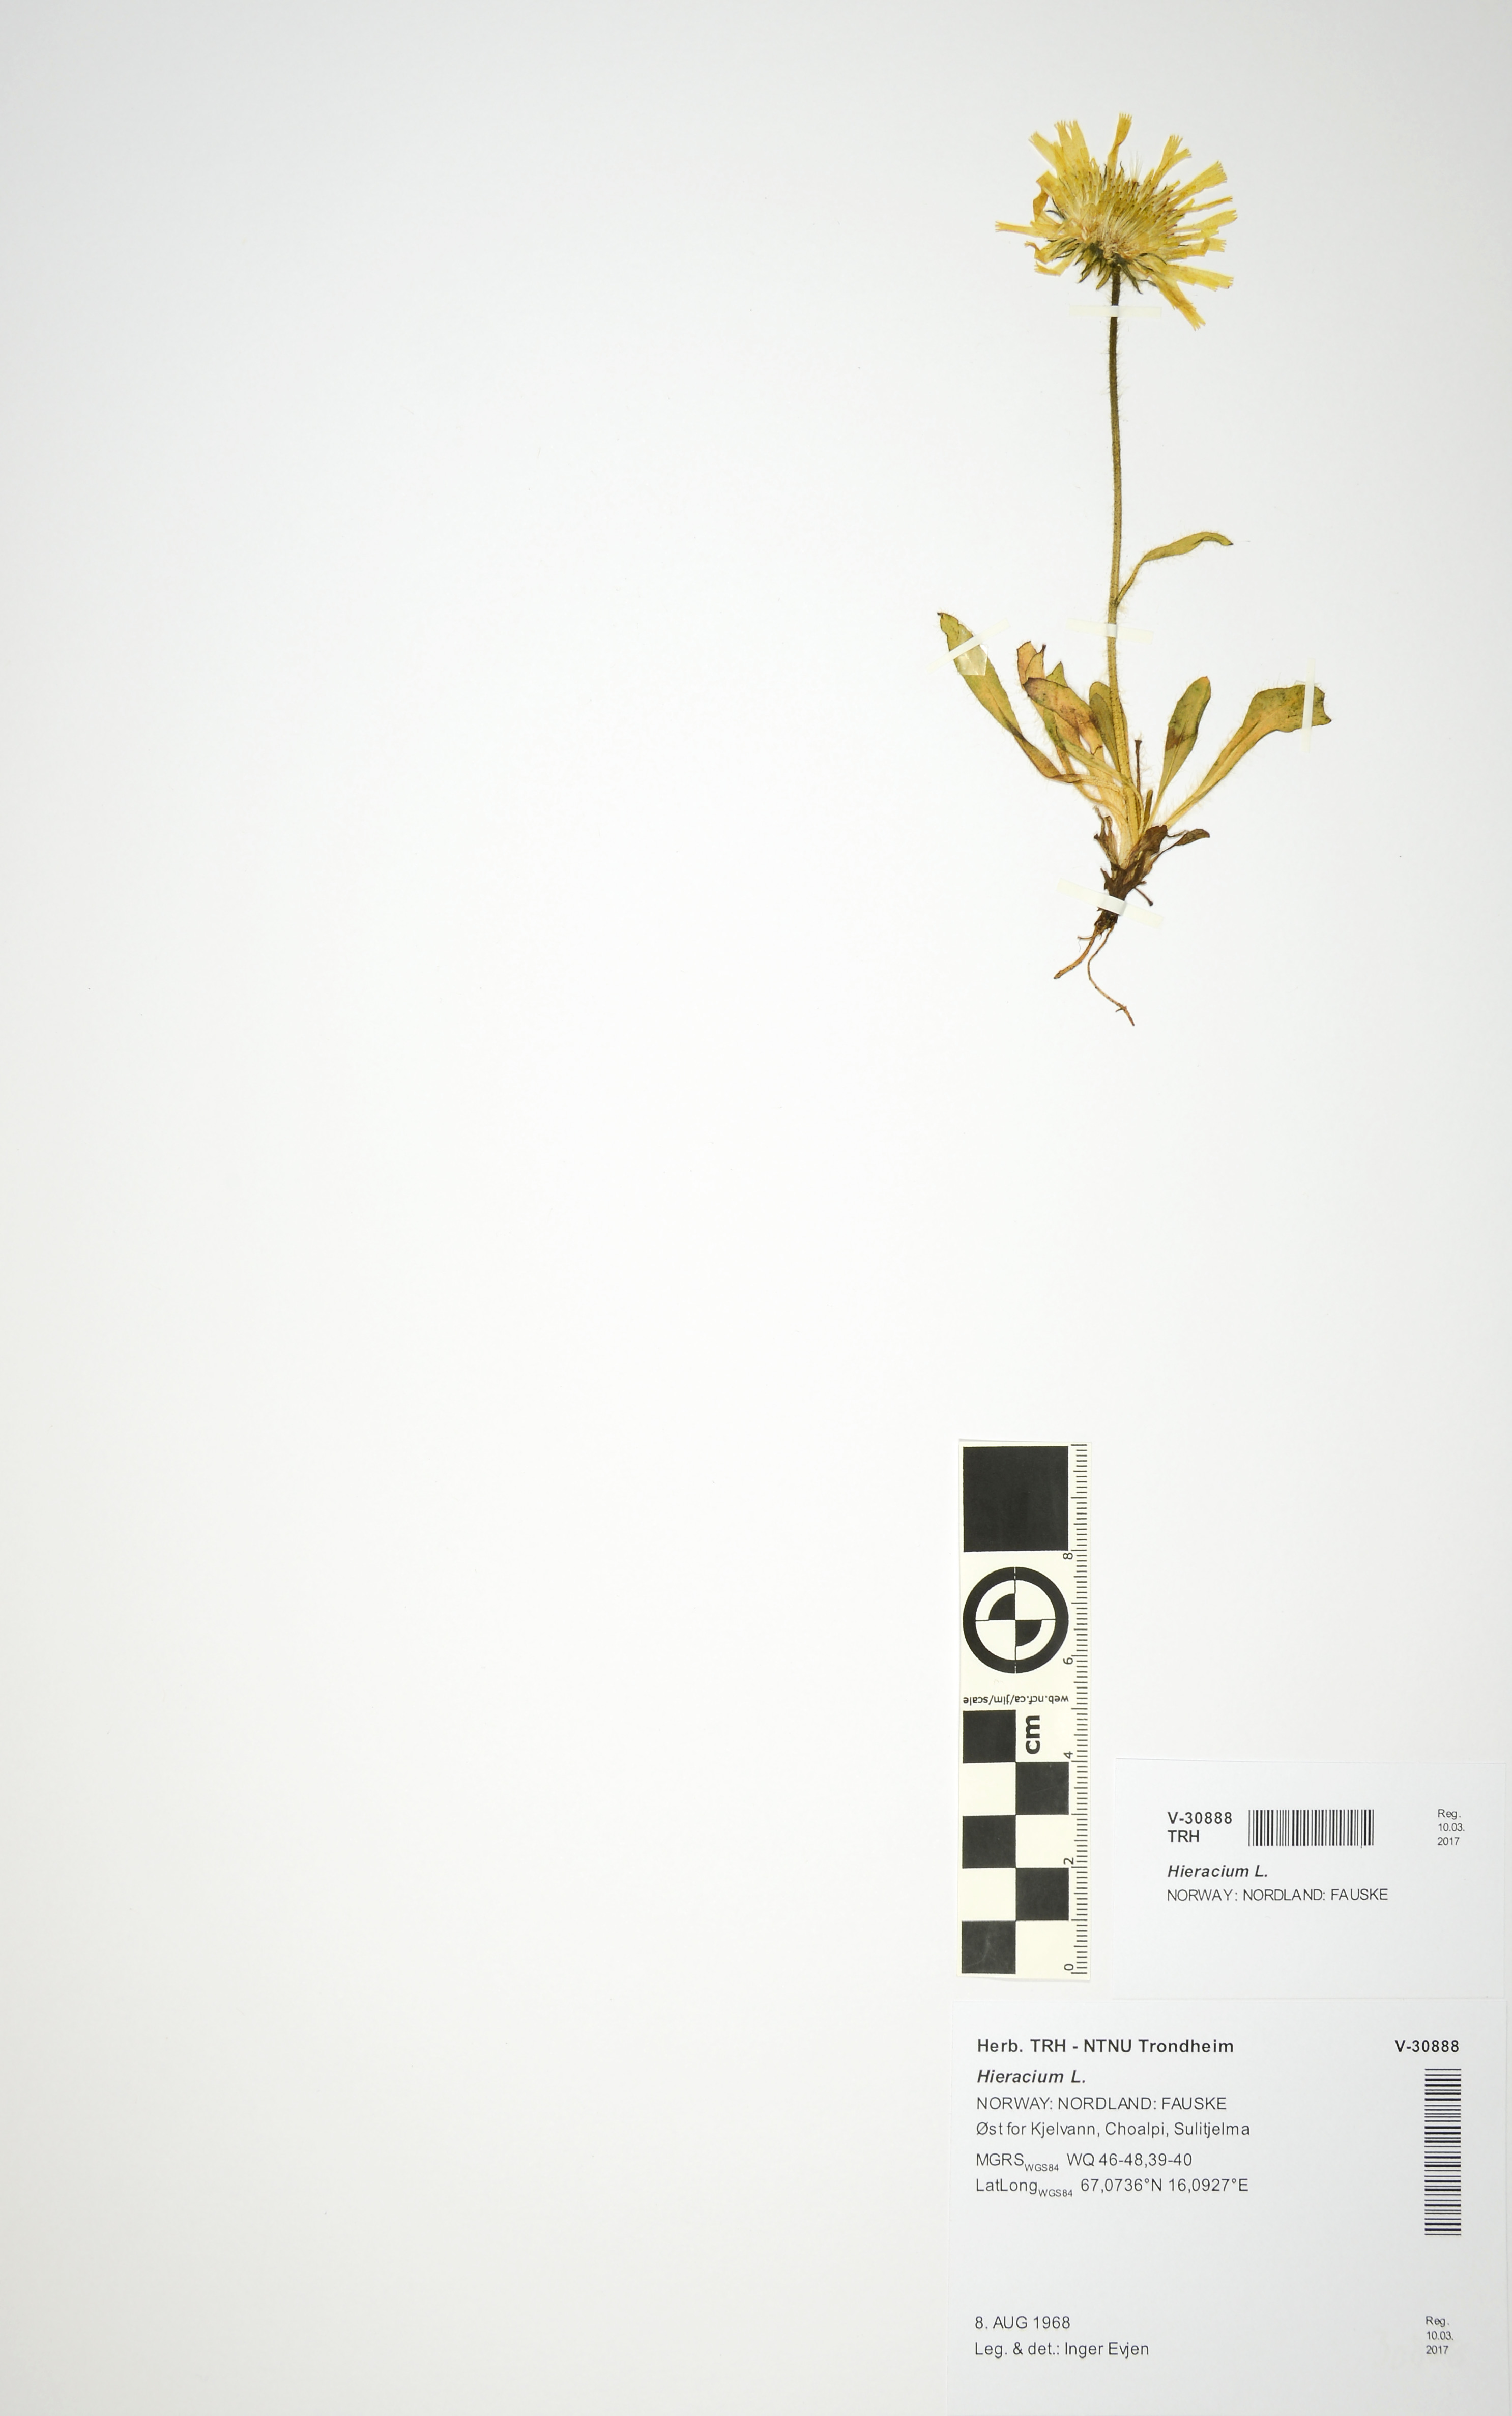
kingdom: Plantae
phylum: Tracheophyta
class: Magnoliopsida
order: Asterales
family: Asteraceae
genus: Hieracium
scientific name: Hieracium
